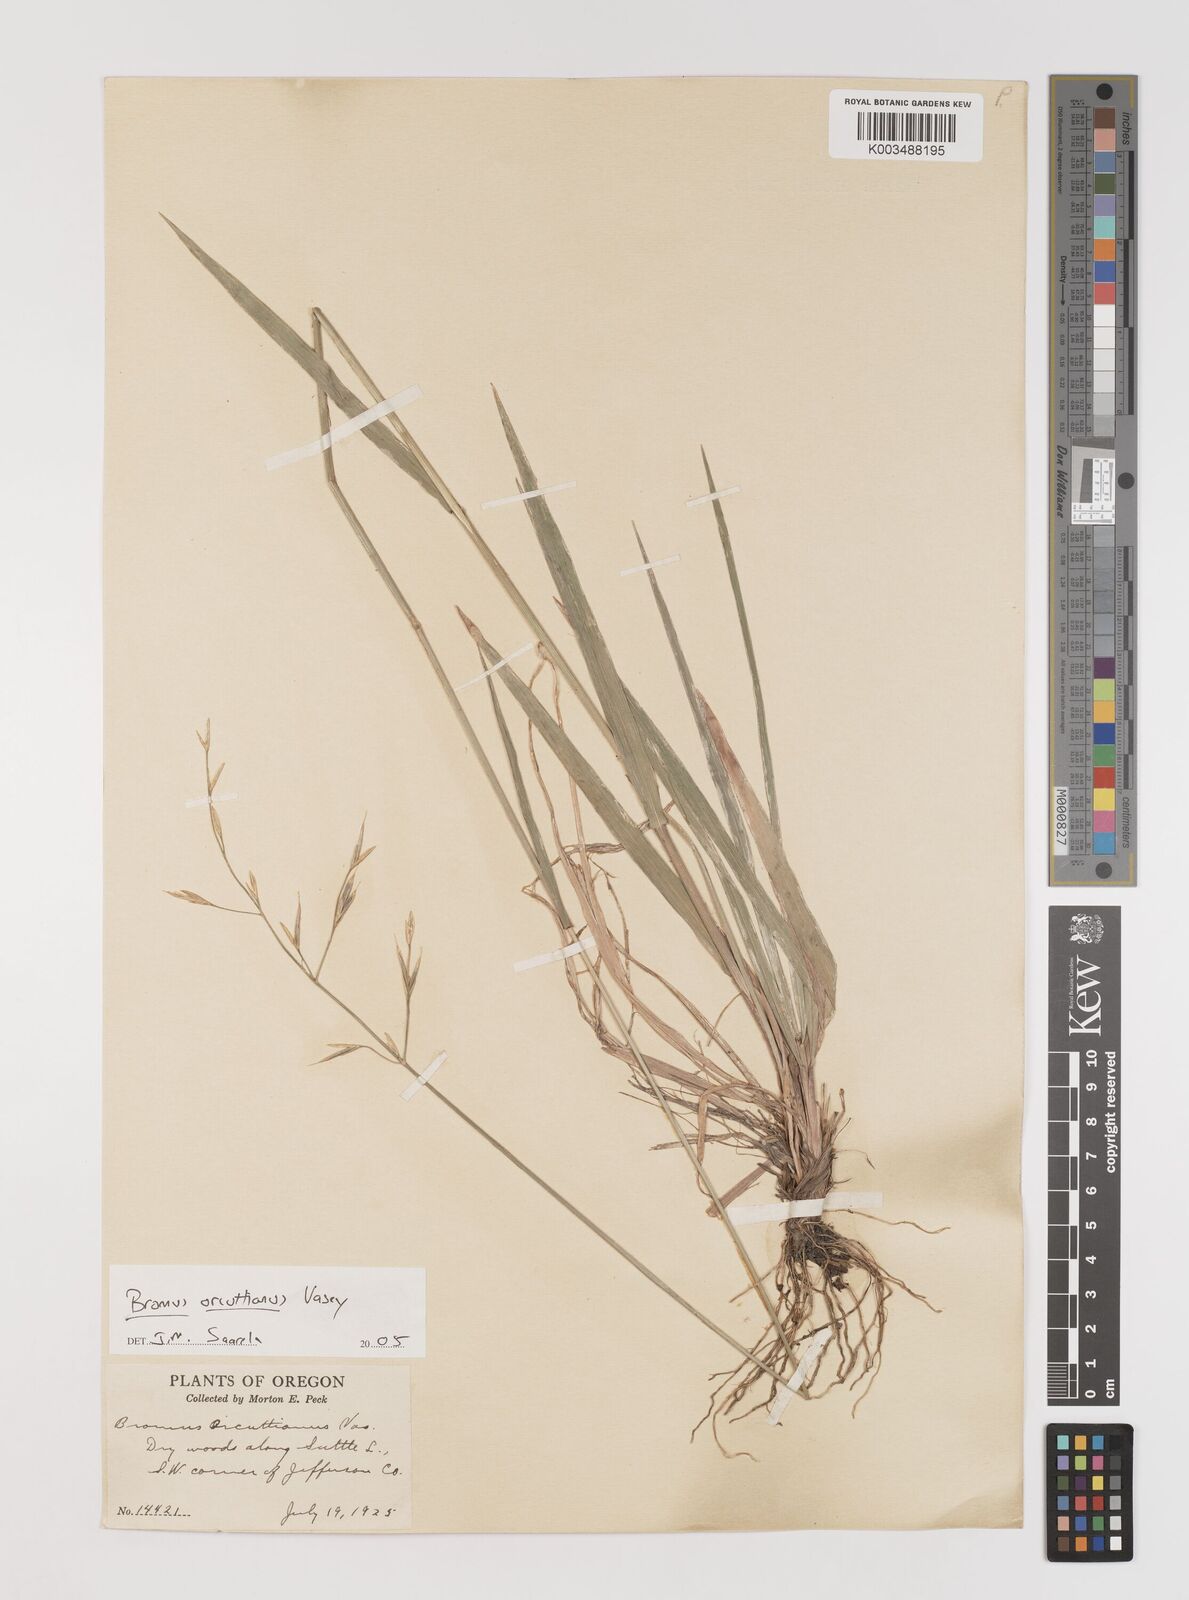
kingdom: Plantae
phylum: Tracheophyta
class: Liliopsida
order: Poales
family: Poaceae
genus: Bromus
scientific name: Bromus orcuttianus
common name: Orcutt's brome
